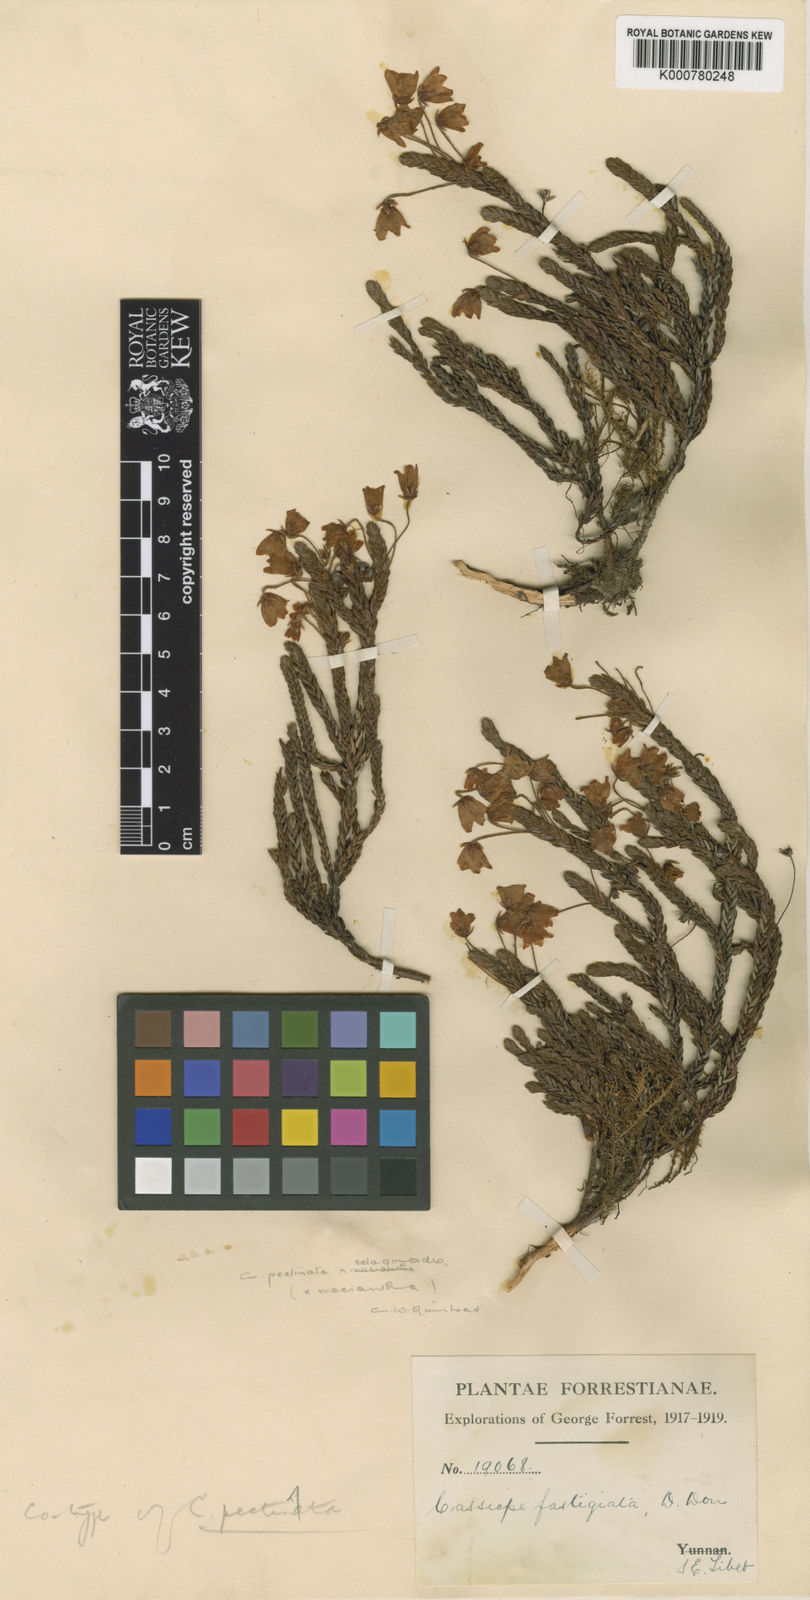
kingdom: Plantae
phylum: Tracheophyta
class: Magnoliopsida
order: Ericales
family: Ericaceae
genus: Cassiope
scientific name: Cassiope pectinata
